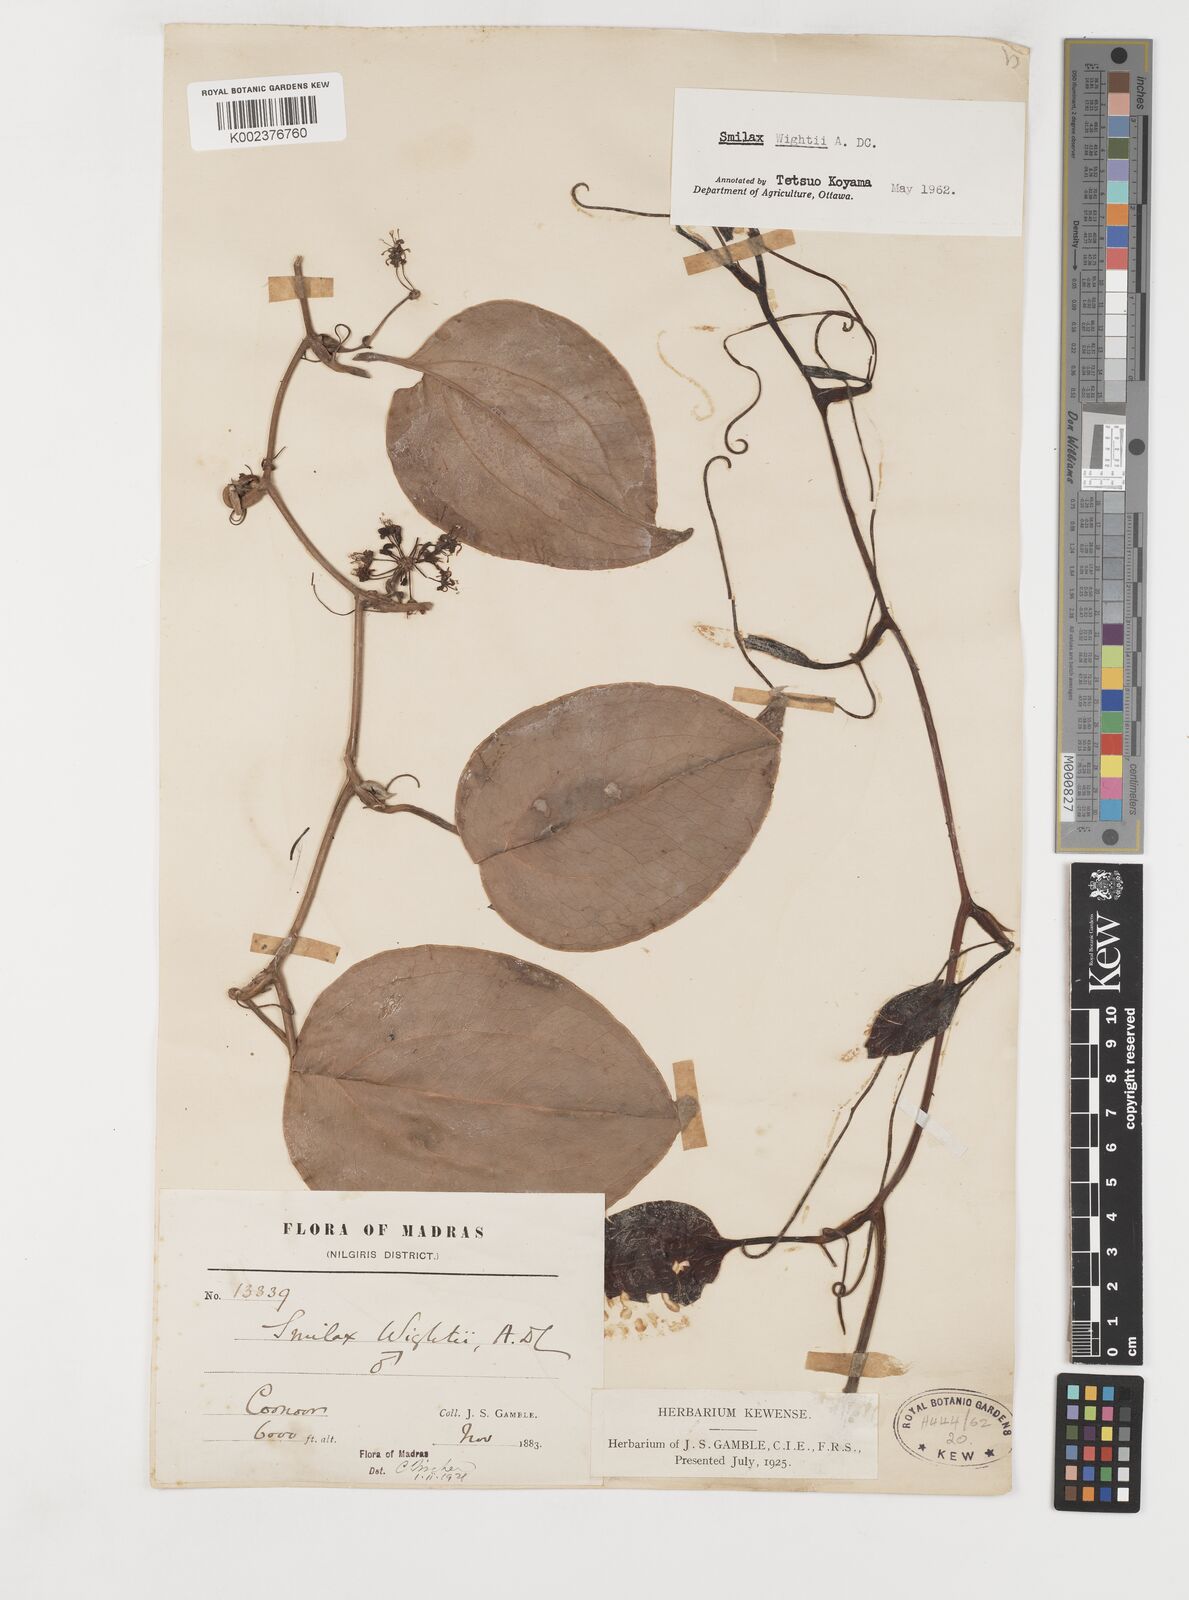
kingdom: Plantae
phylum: Tracheophyta
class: Liliopsida
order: Liliales
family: Smilacaceae
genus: Smilax
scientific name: Smilax wightii
